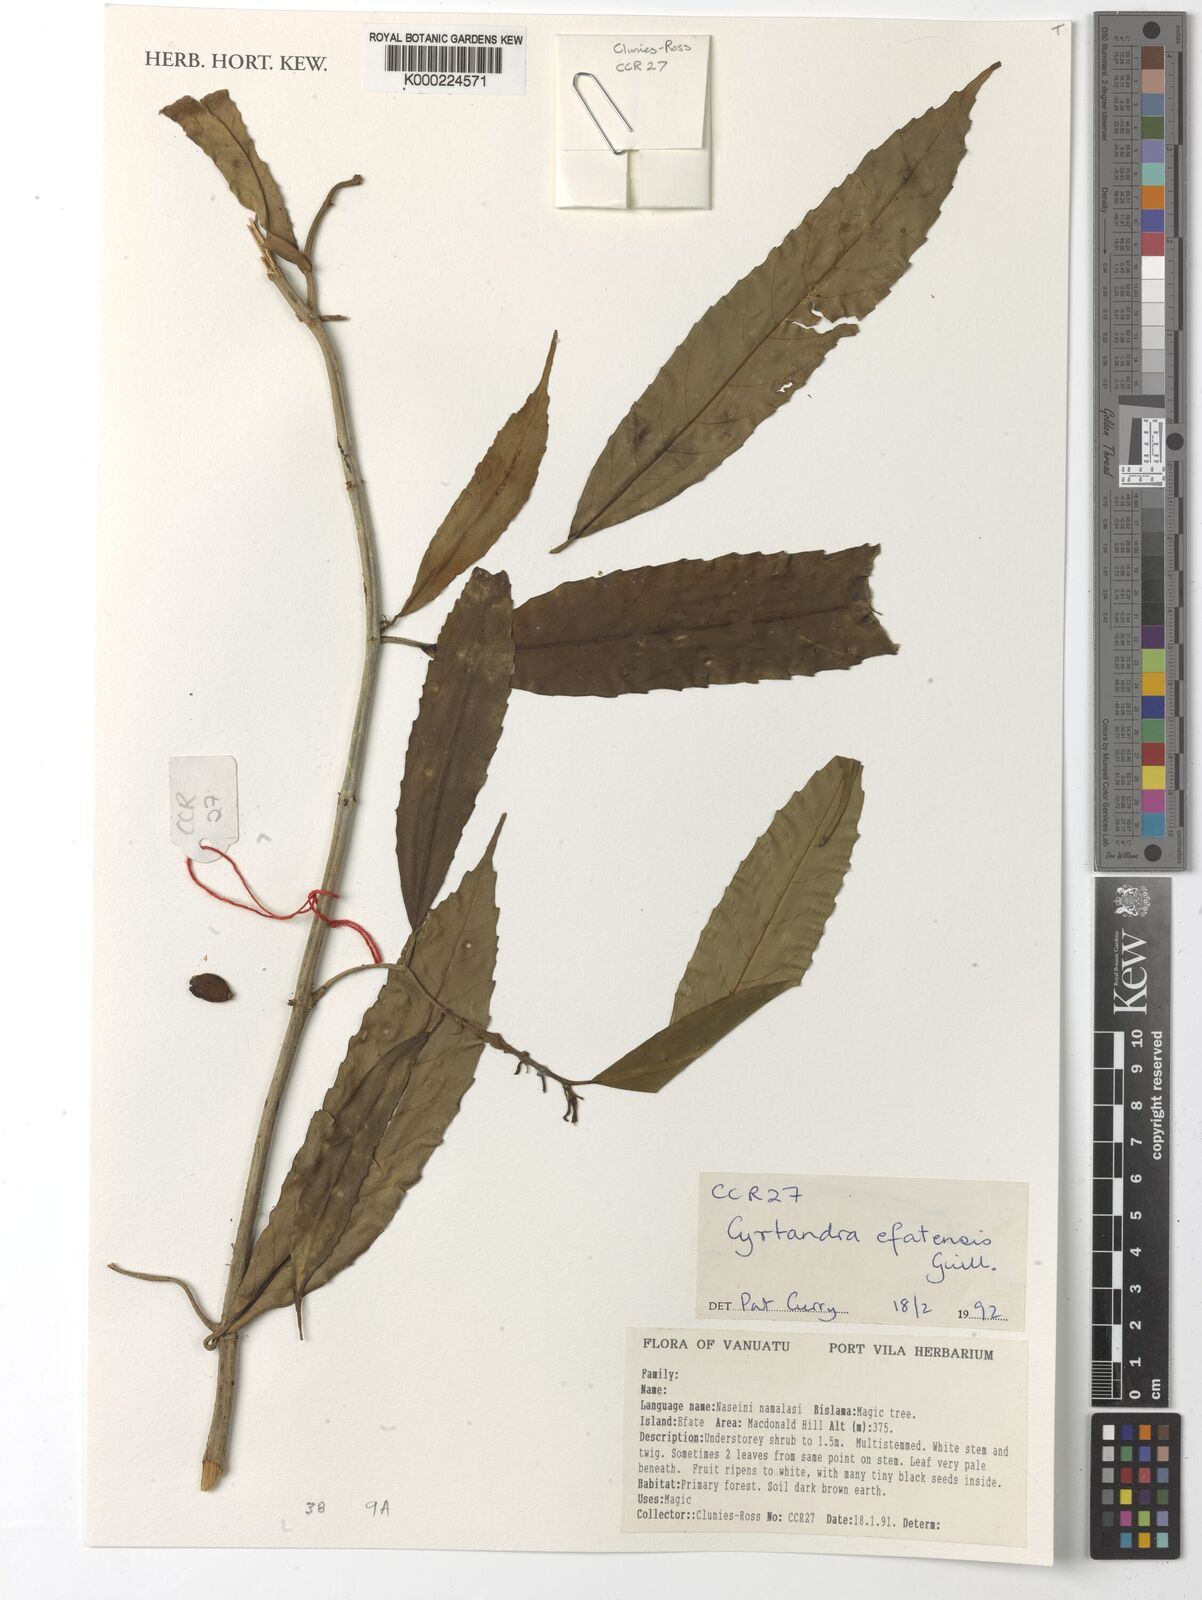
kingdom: Plantae
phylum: Tracheophyta
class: Magnoliopsida
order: Lamiales
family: Gesneriaceae
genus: Cyrtandra
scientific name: Cyrtandra efatensis
